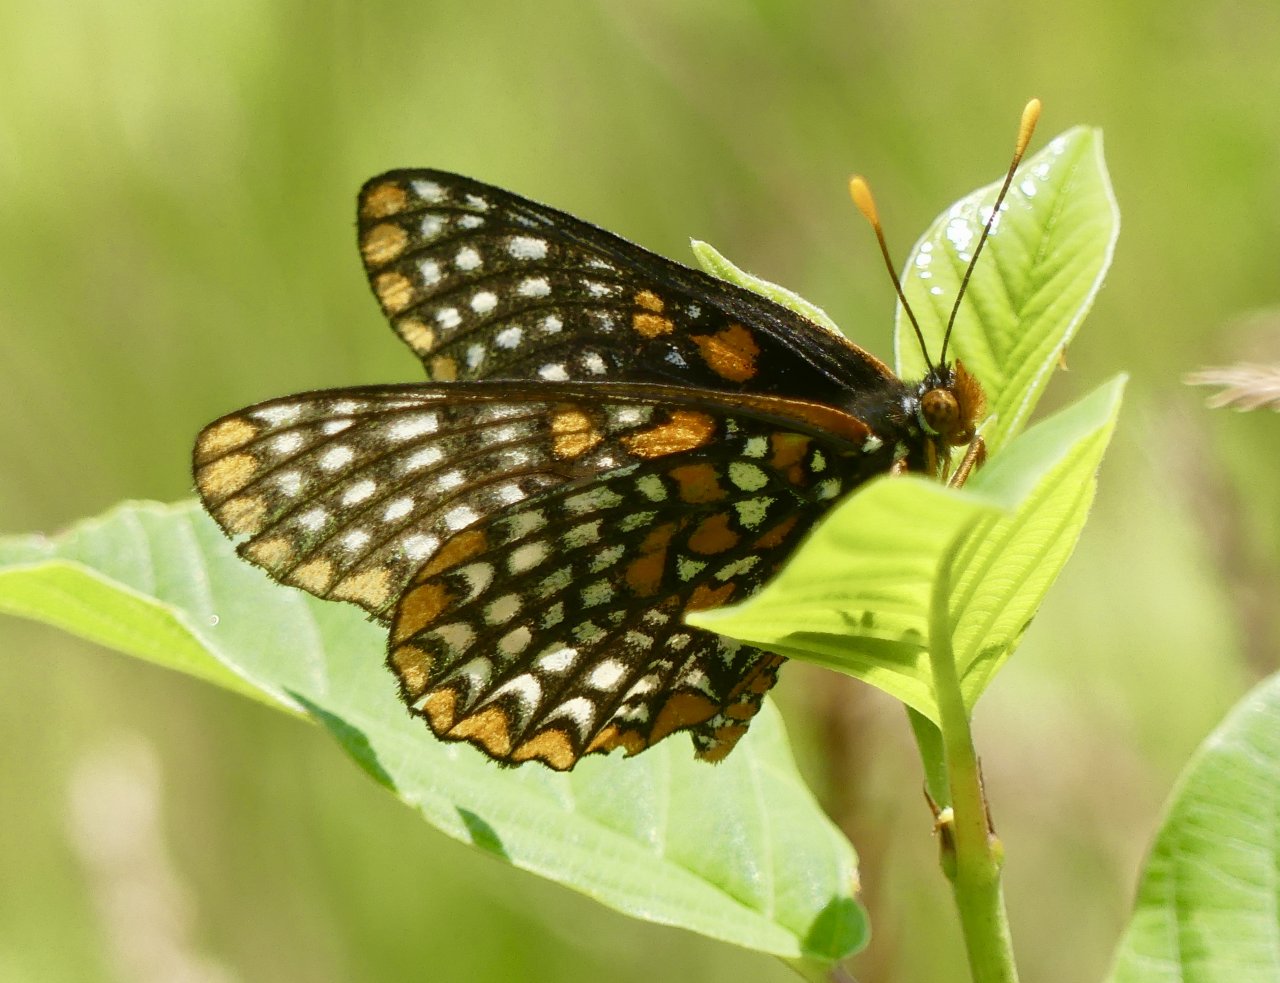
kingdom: Animalia
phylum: Arthropoda
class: Insecta
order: Lepidoptera
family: Nymphalidae
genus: Euphydryas
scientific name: Euphydryas phaeton
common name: Baltimore Checkerspot
